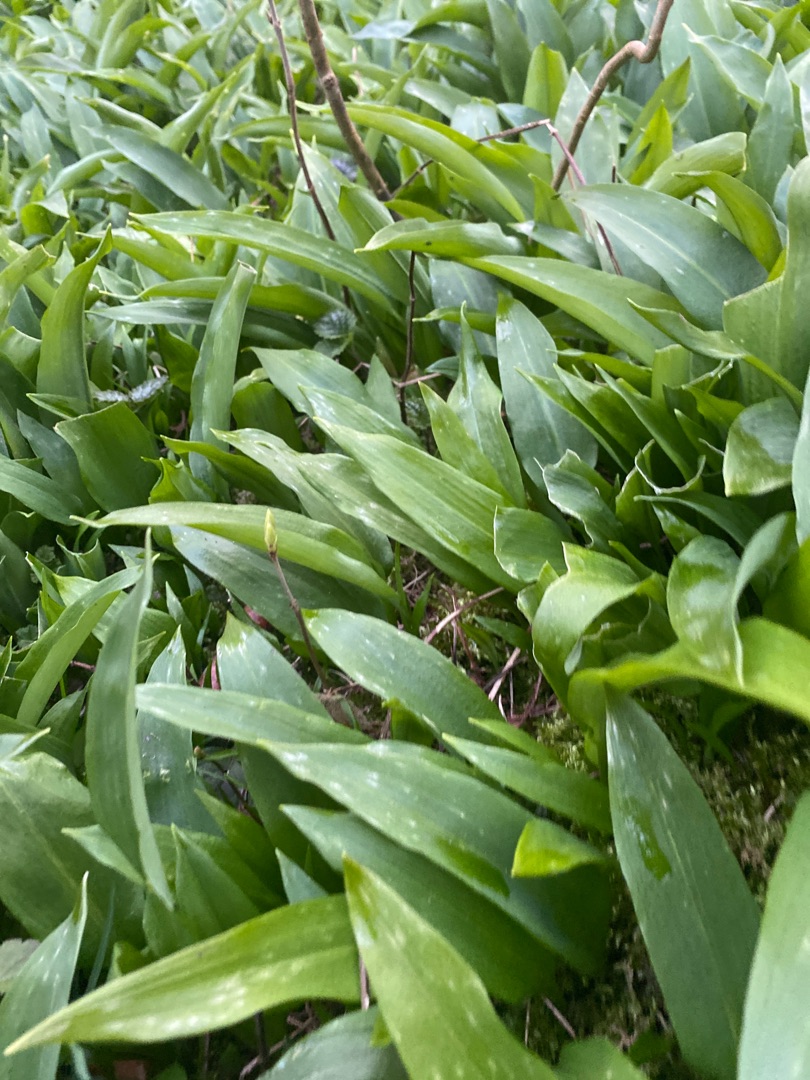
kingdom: Plantae
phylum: Tracheophyta
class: Liliopsida
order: Asparagales
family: Amaryllidaceae
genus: Allium
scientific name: Allium ursinum
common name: Rams-løg
